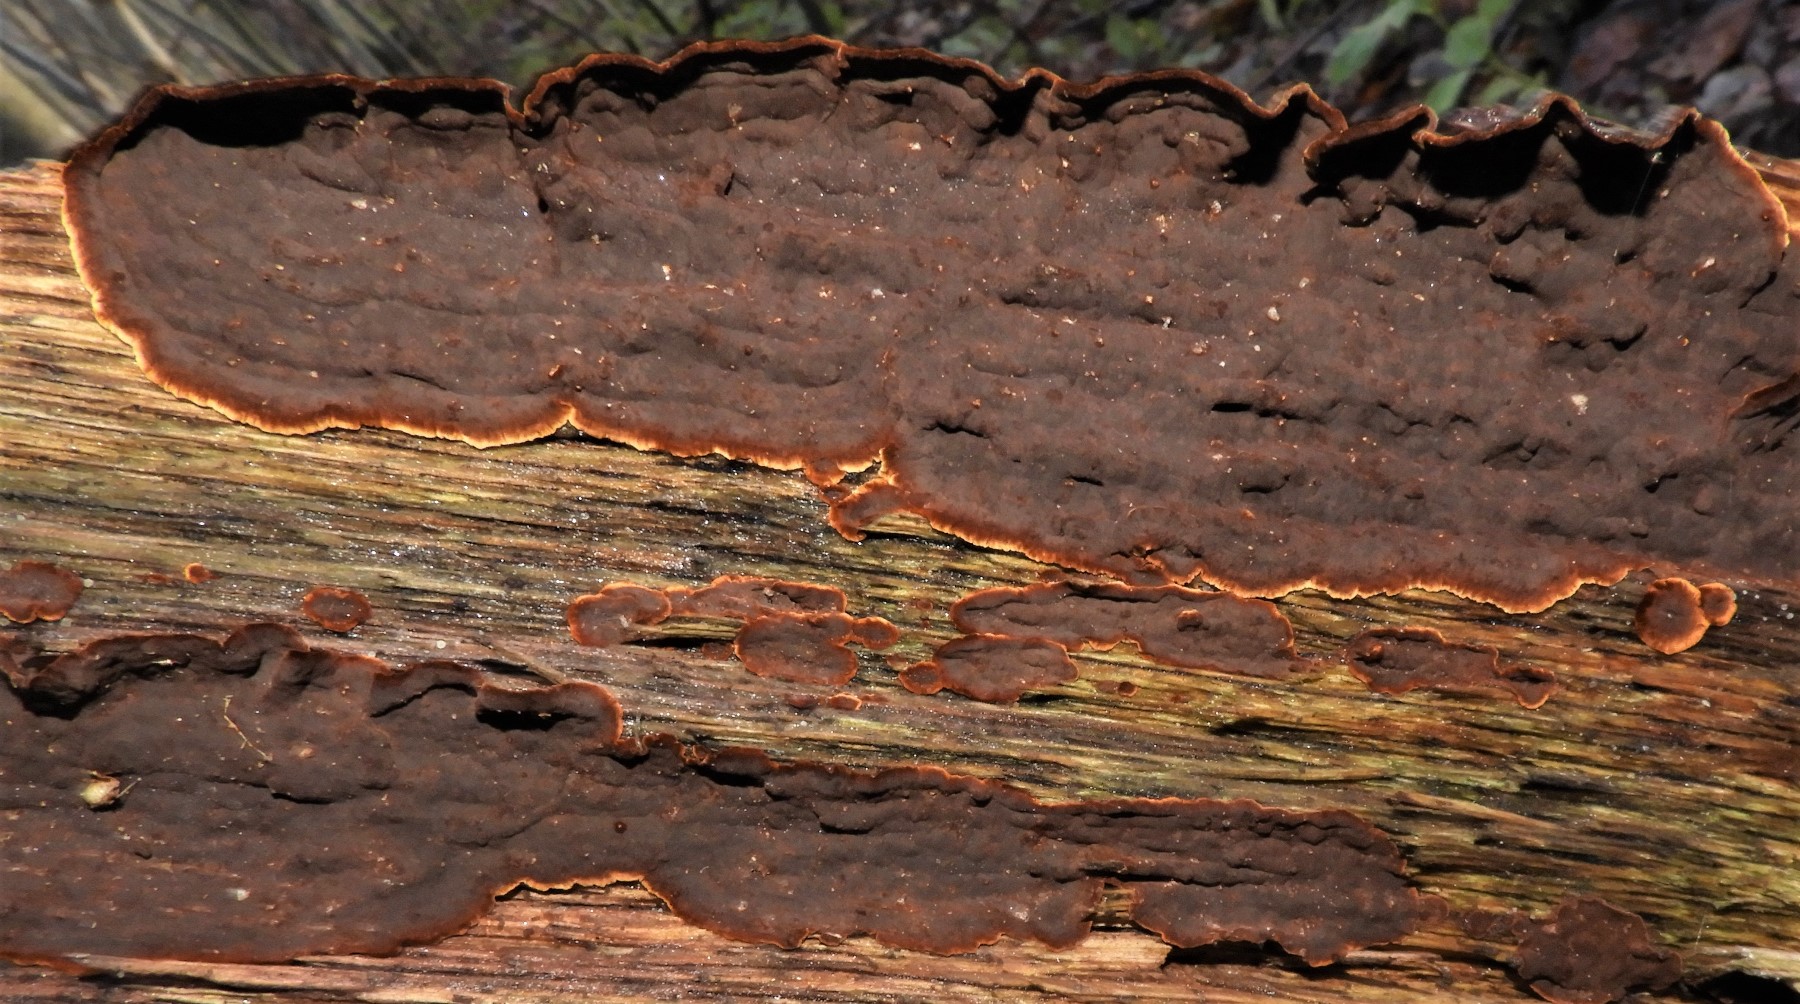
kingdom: Fungi
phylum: Basidiomycota
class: Agaricomycetes
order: Hymenochaetales
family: Hymenochaetaceae
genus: Hymenochaete
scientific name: Hymenochaete rubiginosa
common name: stiv ruslædersvamp
